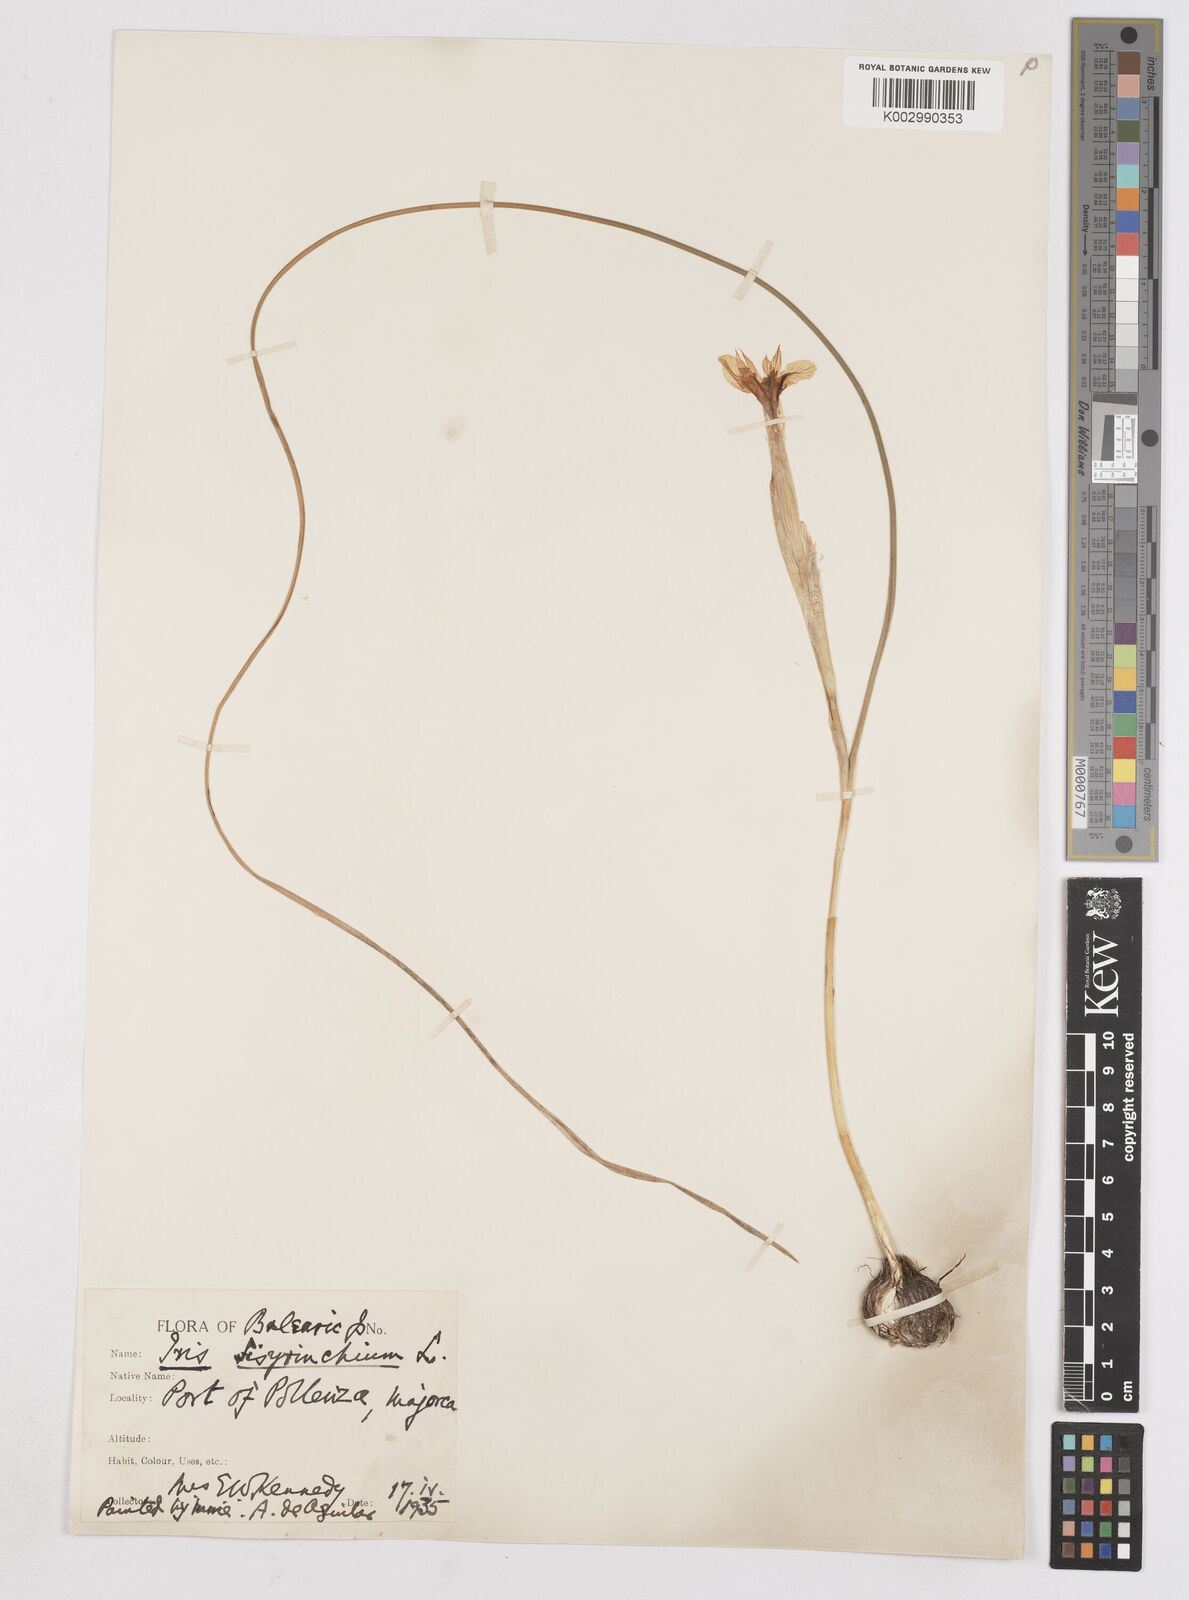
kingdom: Plantae
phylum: Tracheophyta
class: Liliopsida
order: Asparagales
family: Iridaceae
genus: Moraea
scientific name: Moraea sisyrinchium
